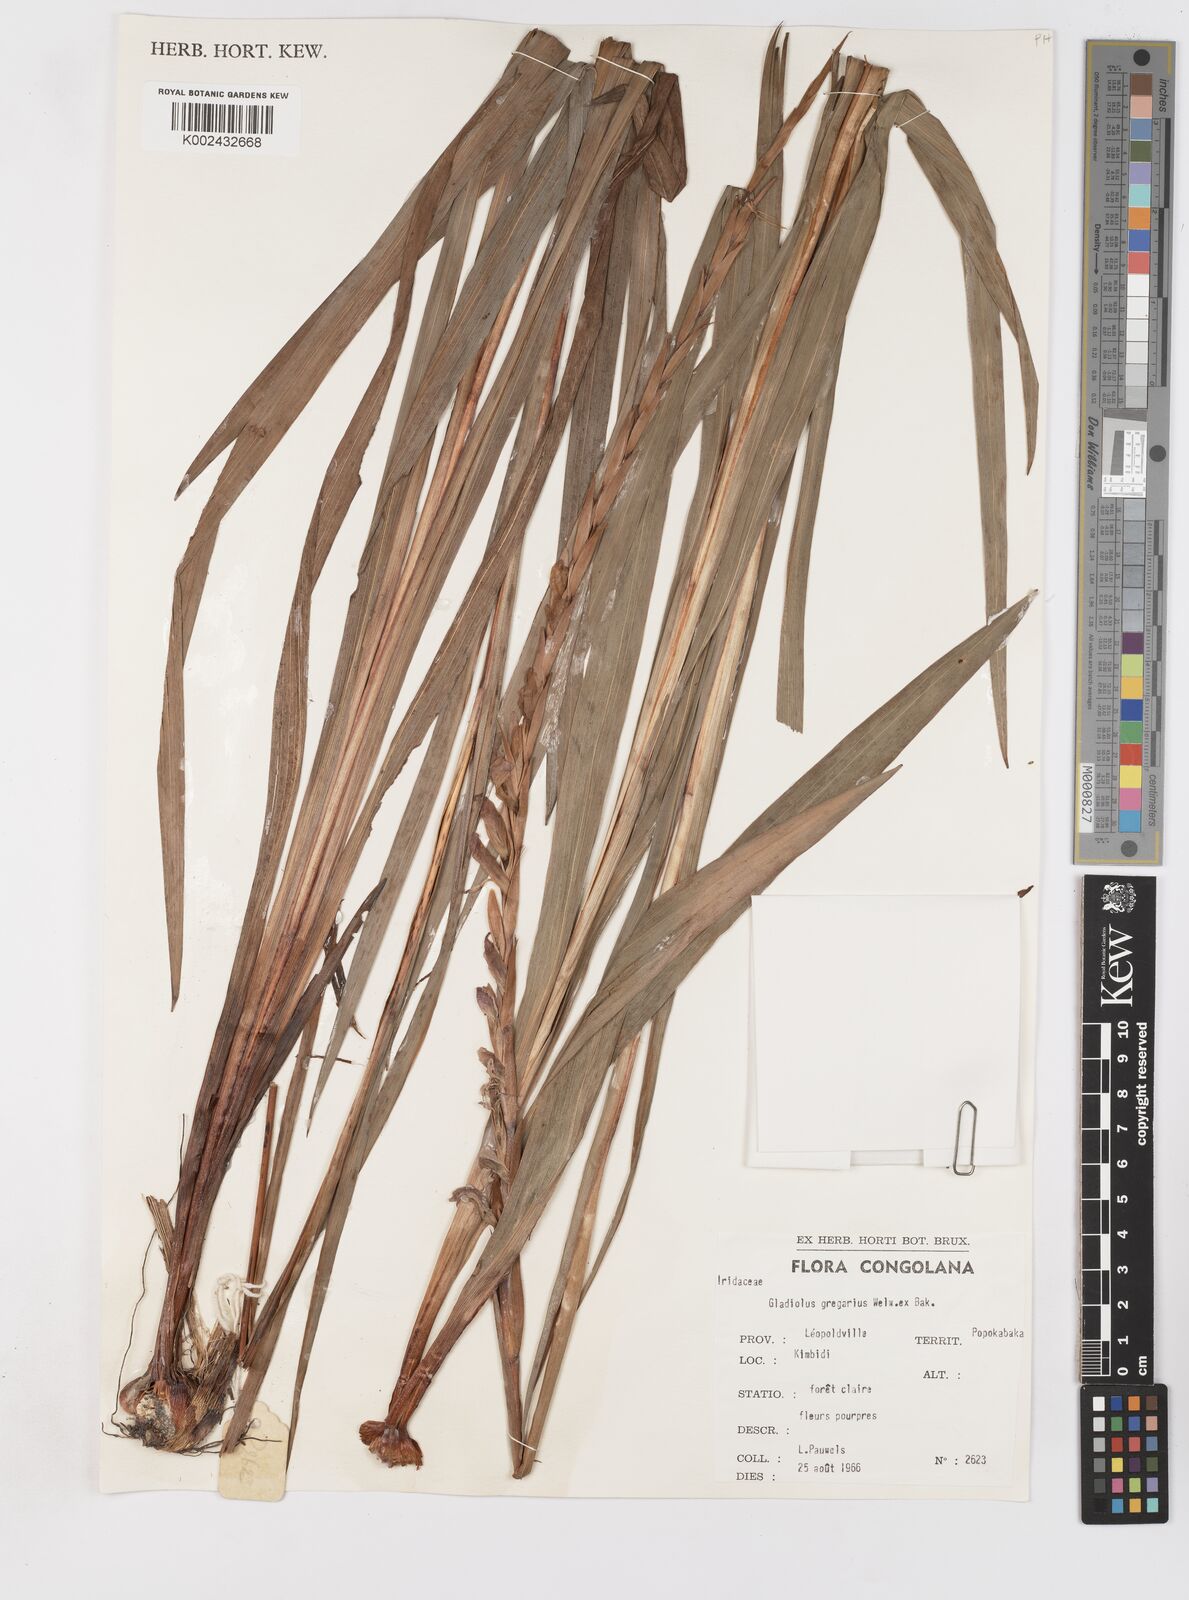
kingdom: Plantae
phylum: Tracheophyta
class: Liliopsida
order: Asparagales
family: Iridaceae
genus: Gladiolus
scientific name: Gladiolus gregarius
